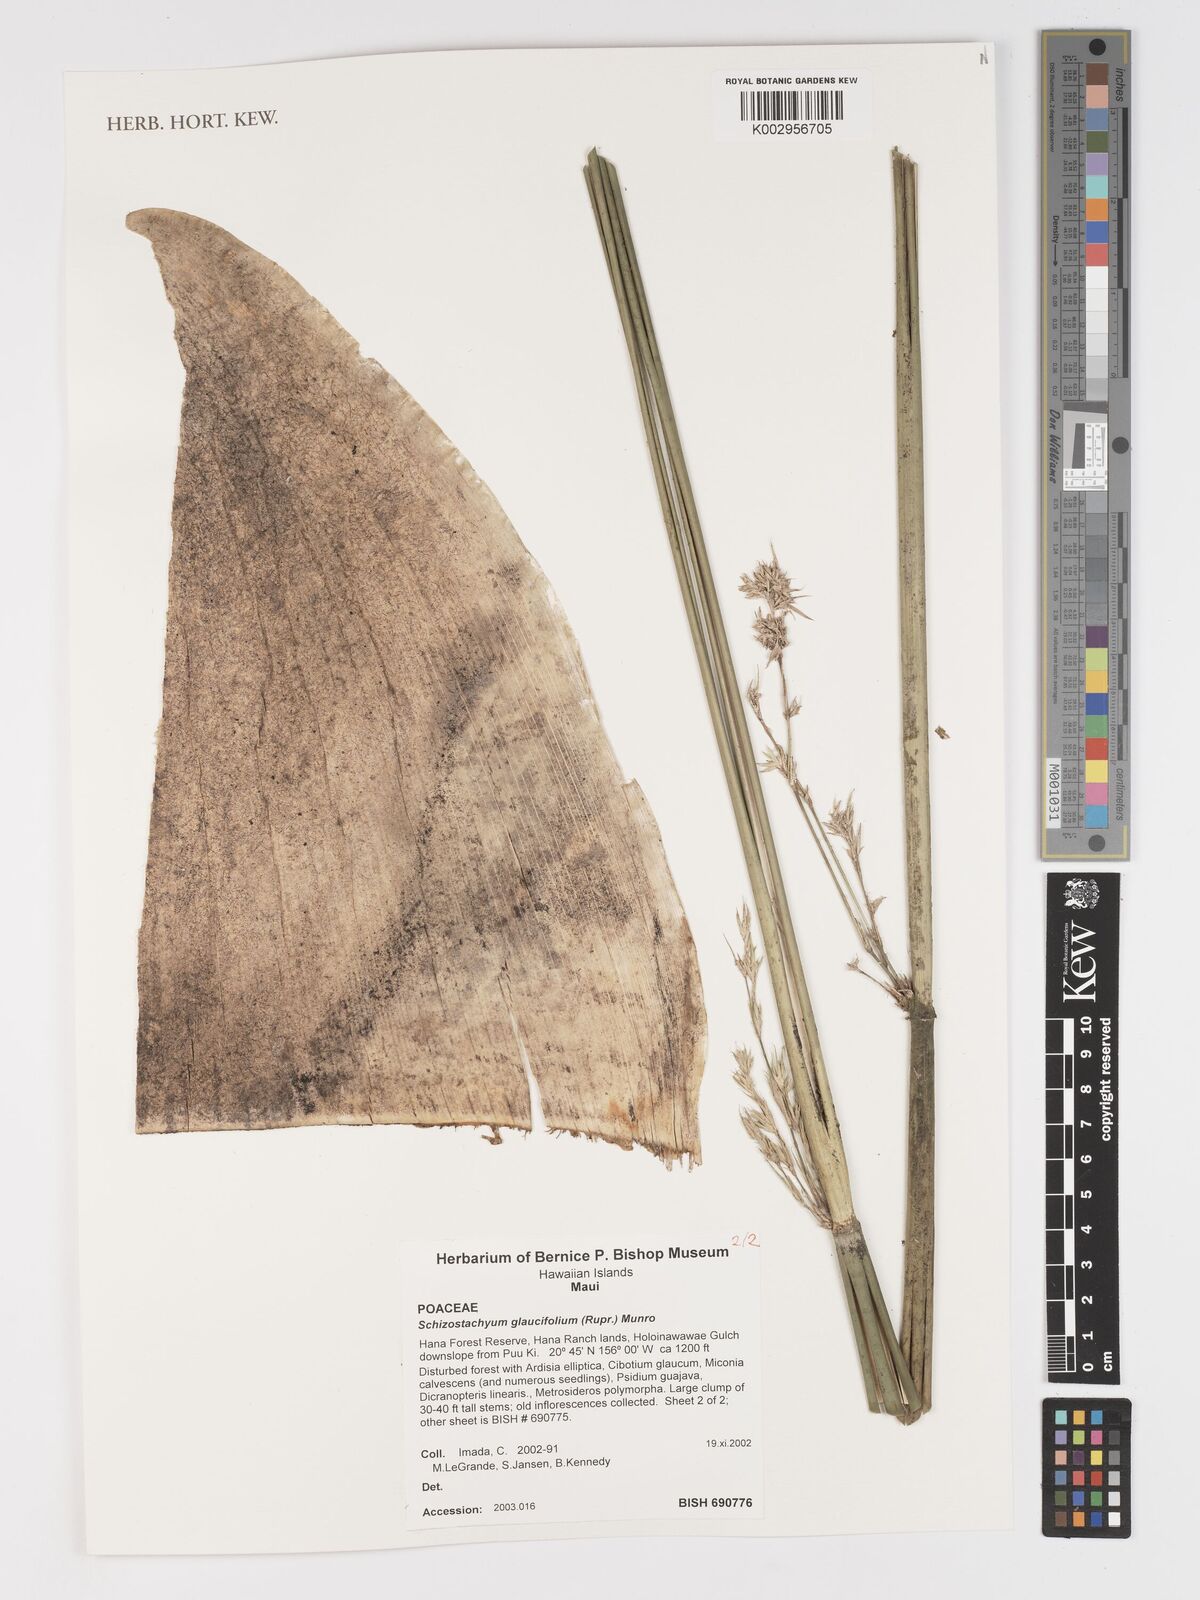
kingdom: Plantae
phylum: Tracheophyta
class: Liliopsida
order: Poales
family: Poaceae
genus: Schizostachyum
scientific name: Schizostachyum glaucifolium
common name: Polynesian 'ohe
